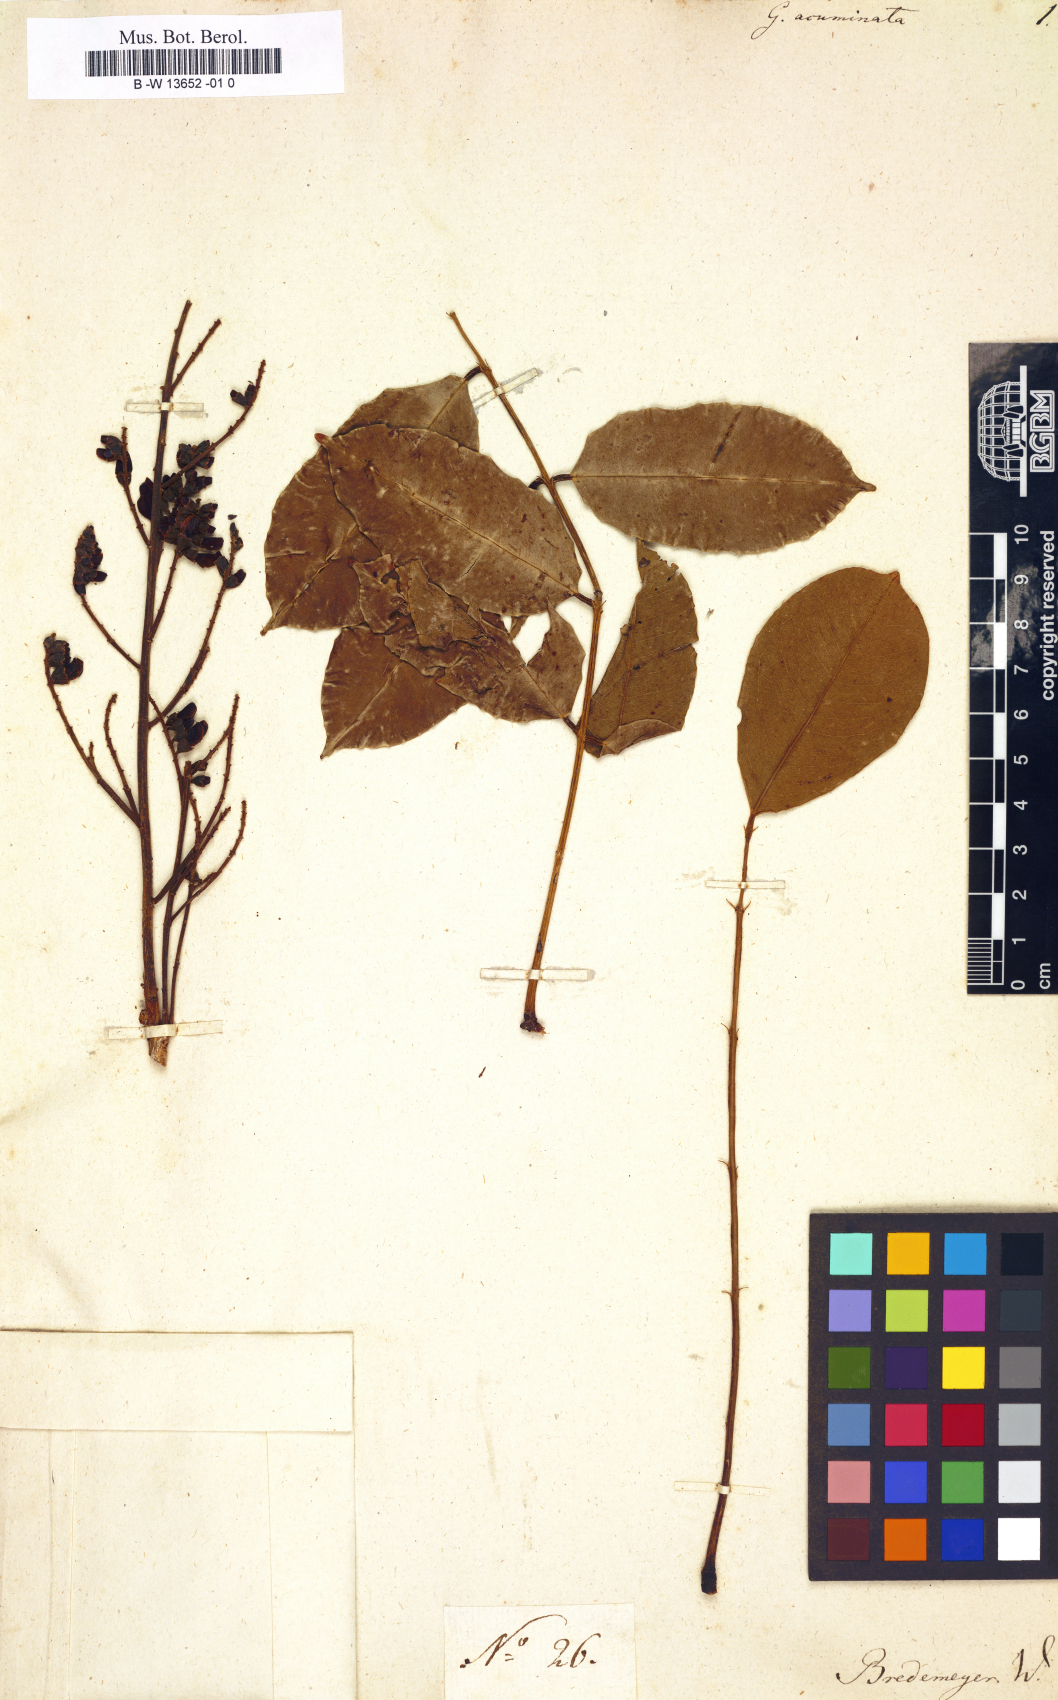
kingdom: Plantae
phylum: Tracheophyta
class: Magnoliopsida
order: Fabales
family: Fabaceae
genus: Geoffroea
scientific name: Geoffroea
